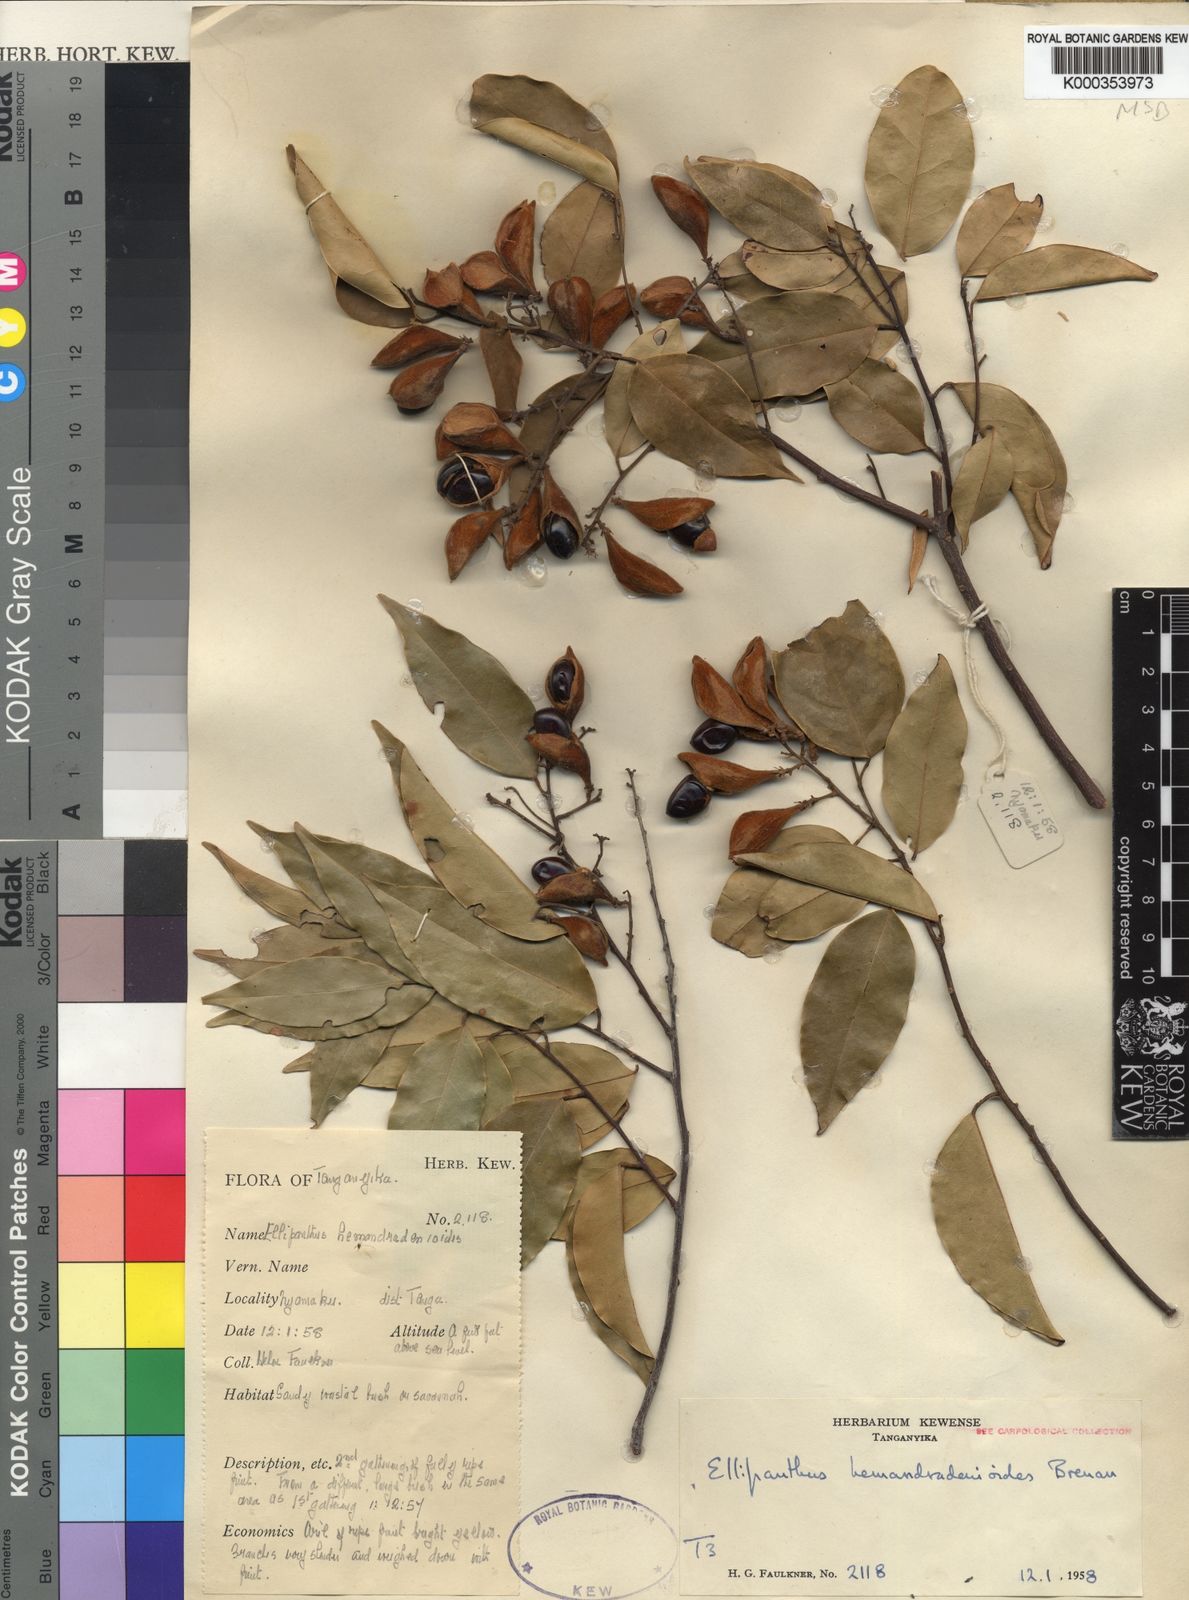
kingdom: Plantae
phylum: Tracheophyta
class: Magnoliopsida
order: Oxalidales
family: Connaraceae
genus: Ellipanthus
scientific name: Ellipanthus madagascariensis
